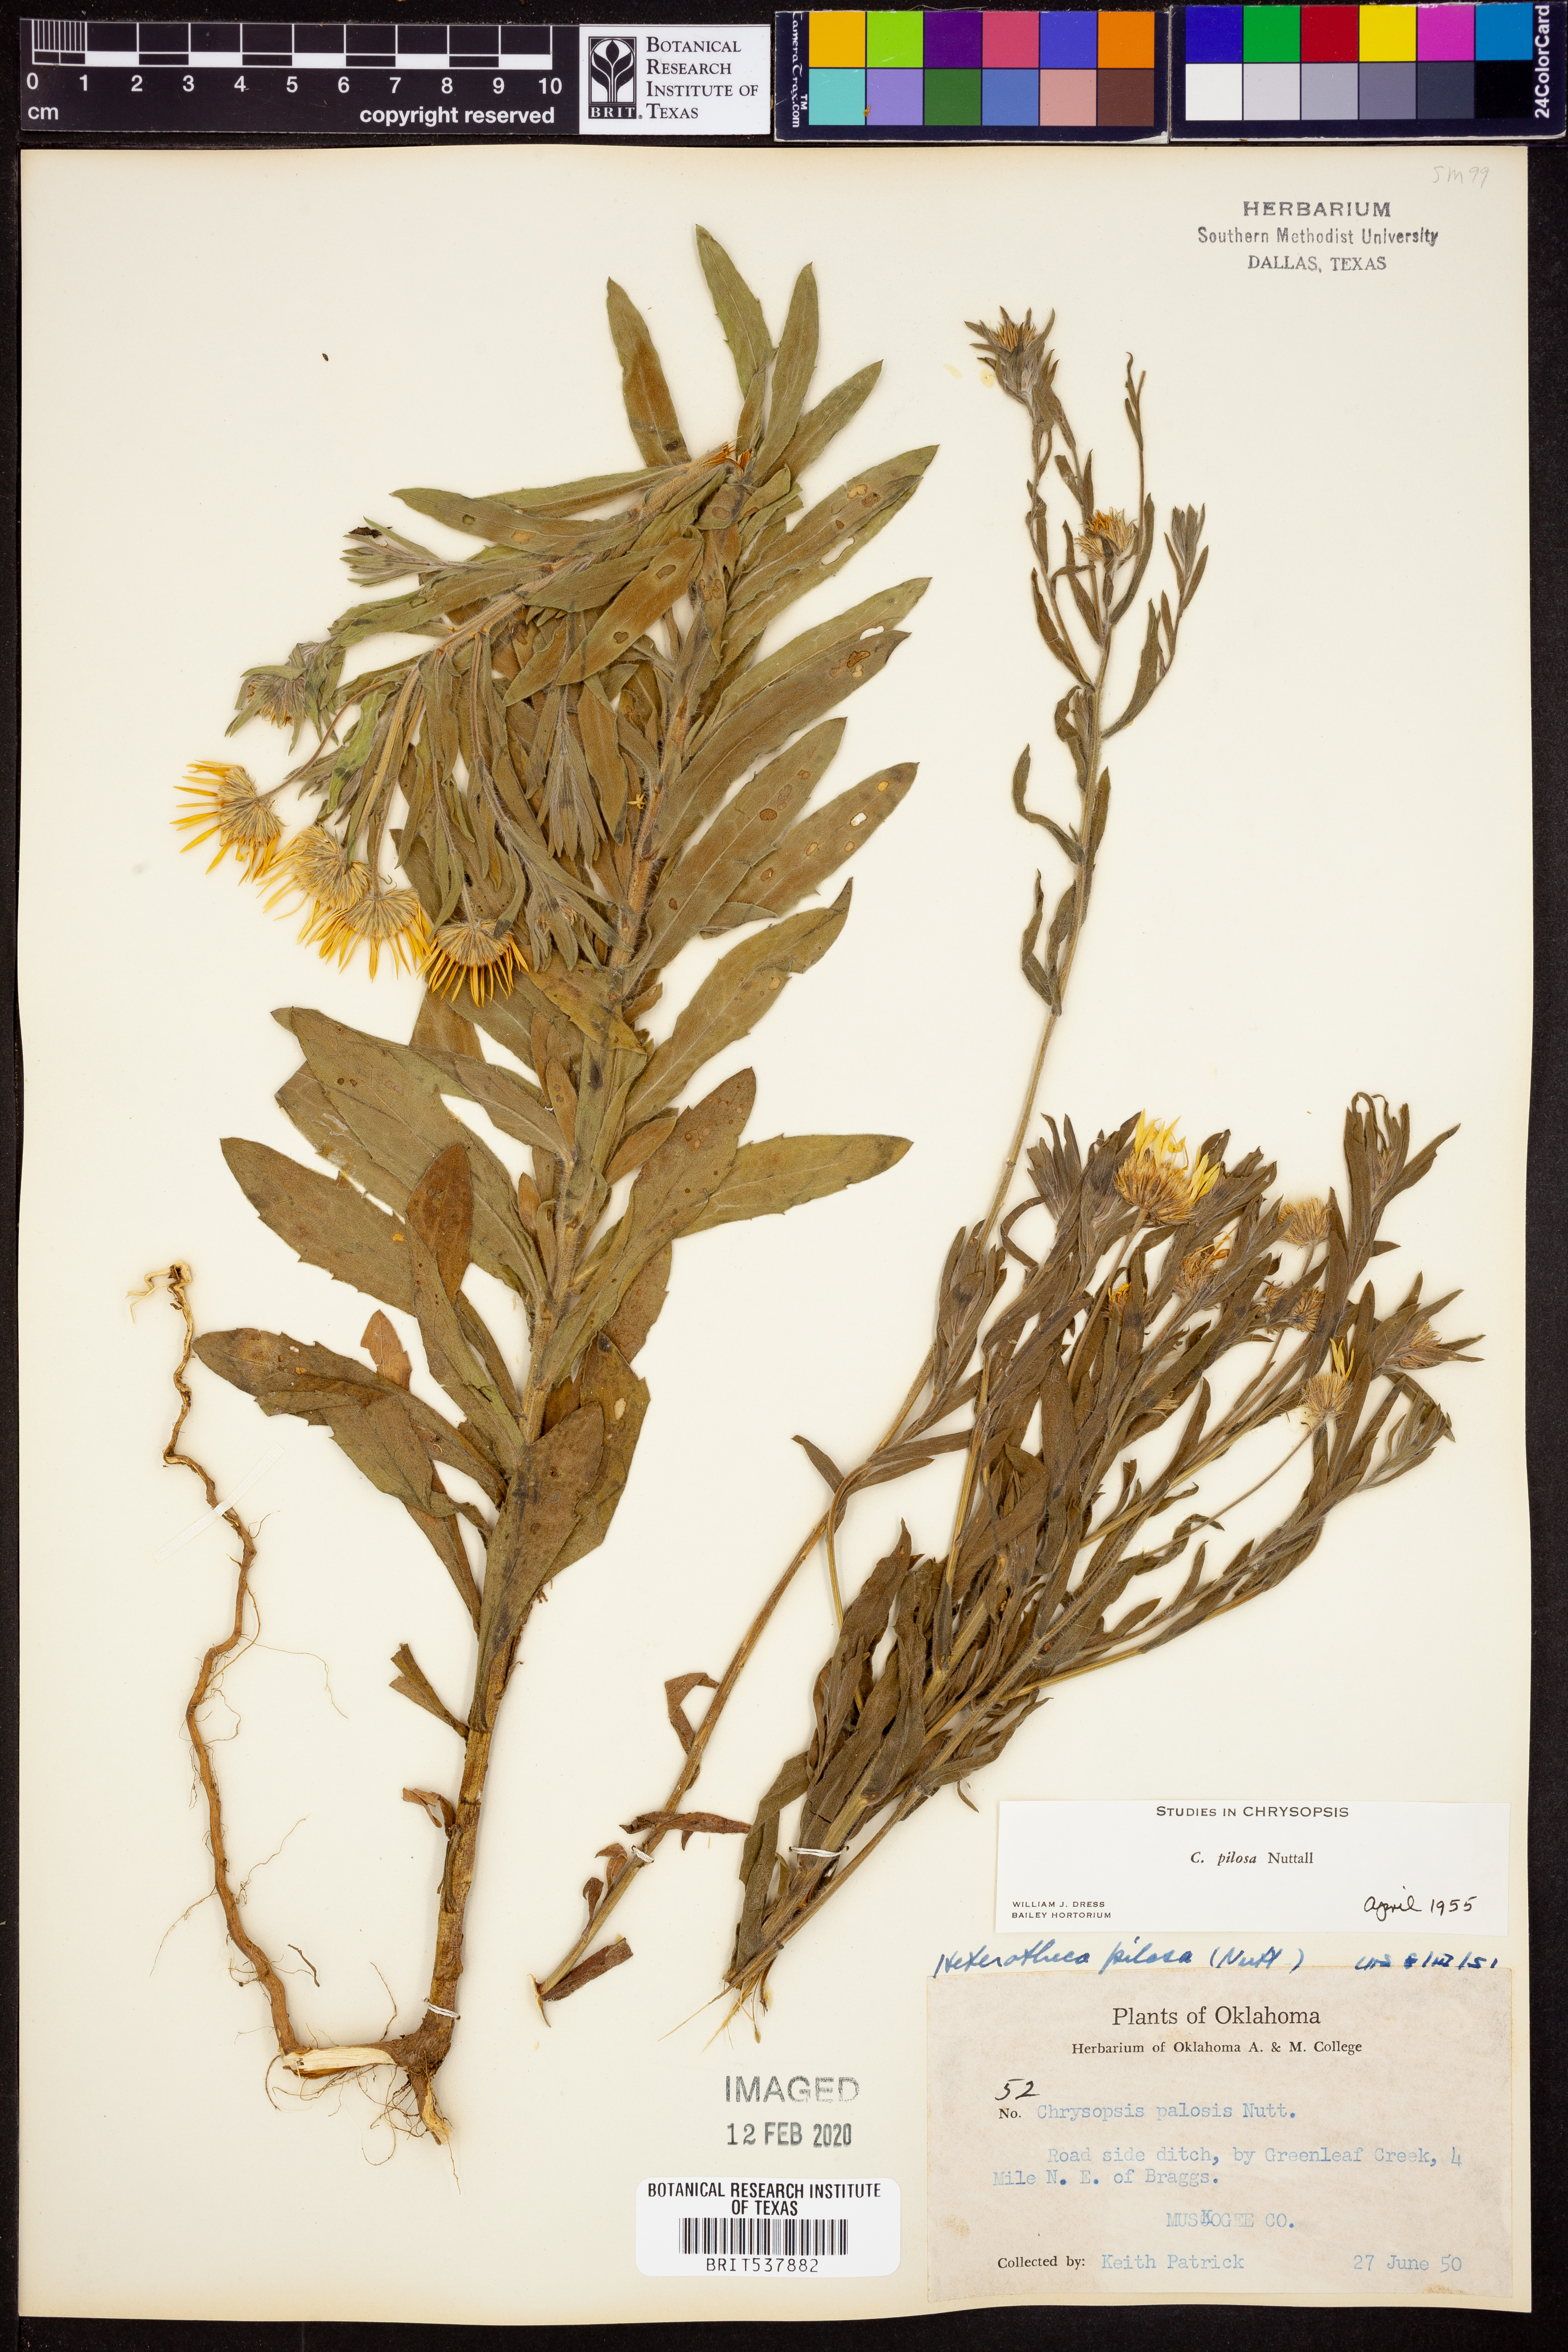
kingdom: Plantae
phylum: Tracheophyta
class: Magnoliopsida
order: Asterales
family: Asteraceae
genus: Bradburia
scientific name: Bradburia pilosa
